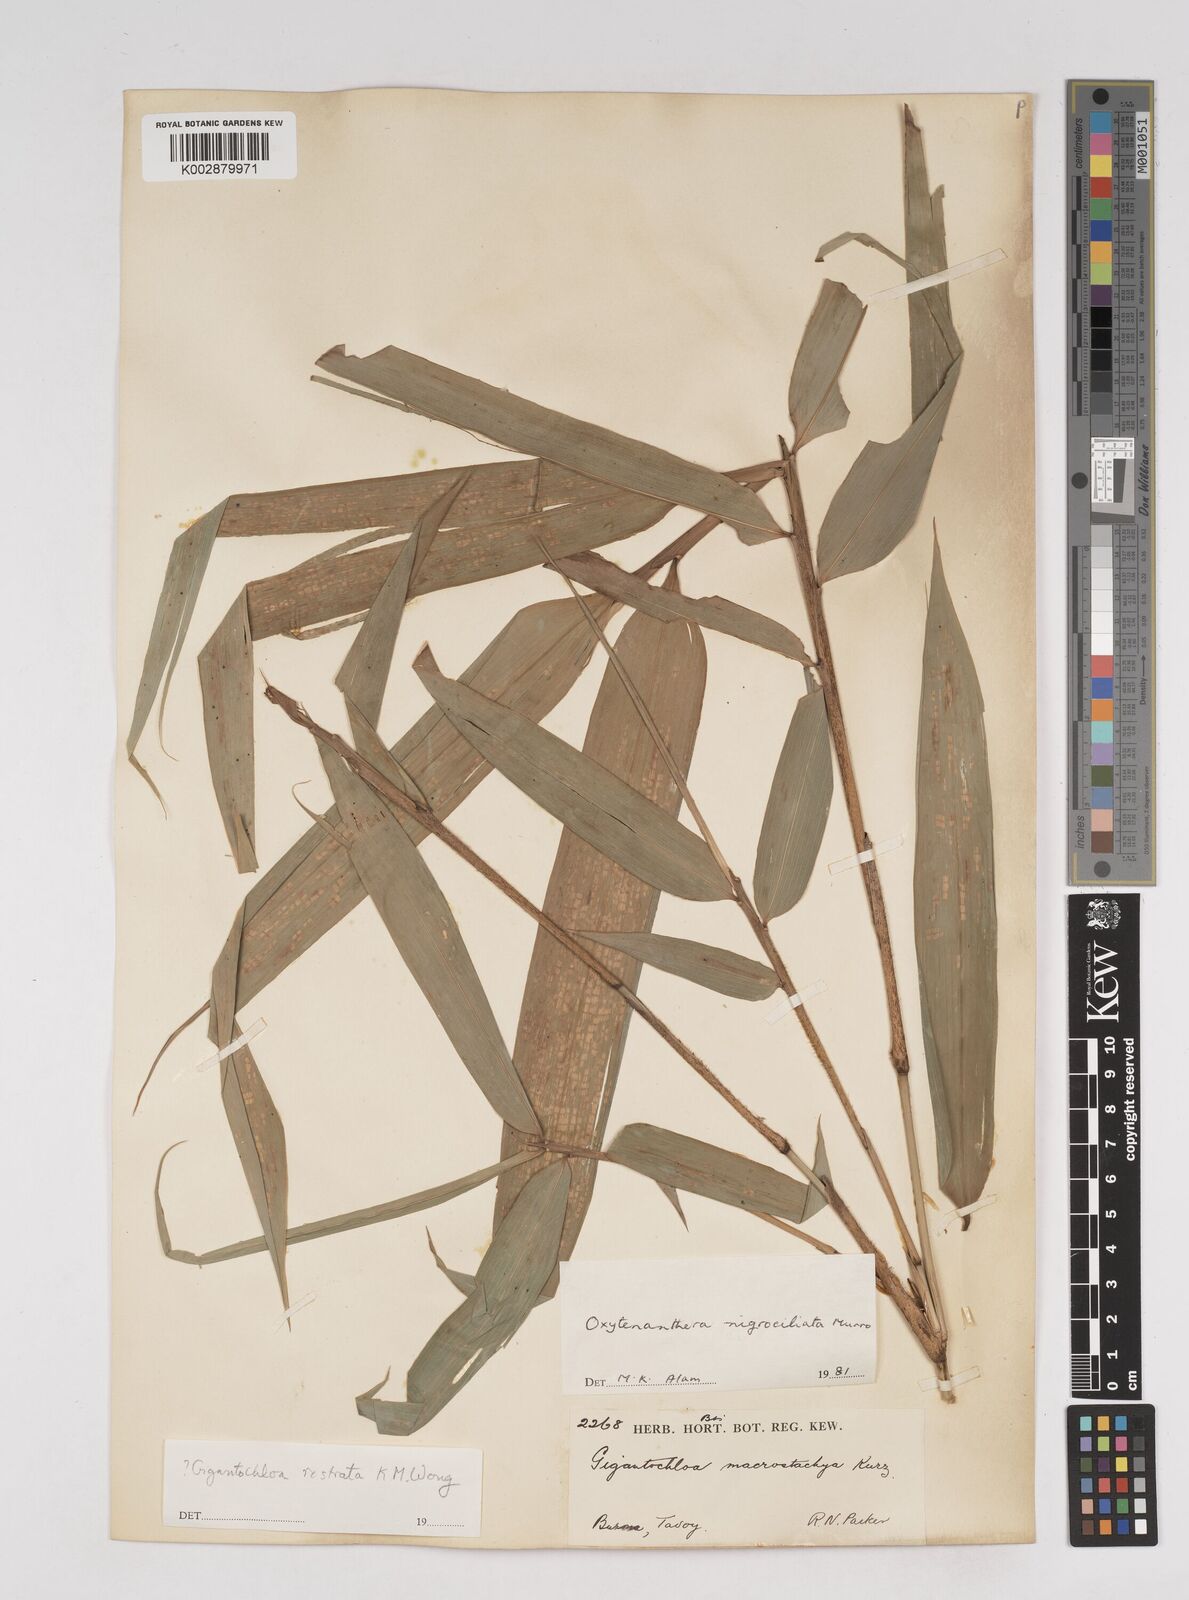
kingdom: Plantae
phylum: Tracheophyta
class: Liliopsida
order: Poales
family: Poaceae
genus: Gigantochloa
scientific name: Gigantochloa nigrociliata
